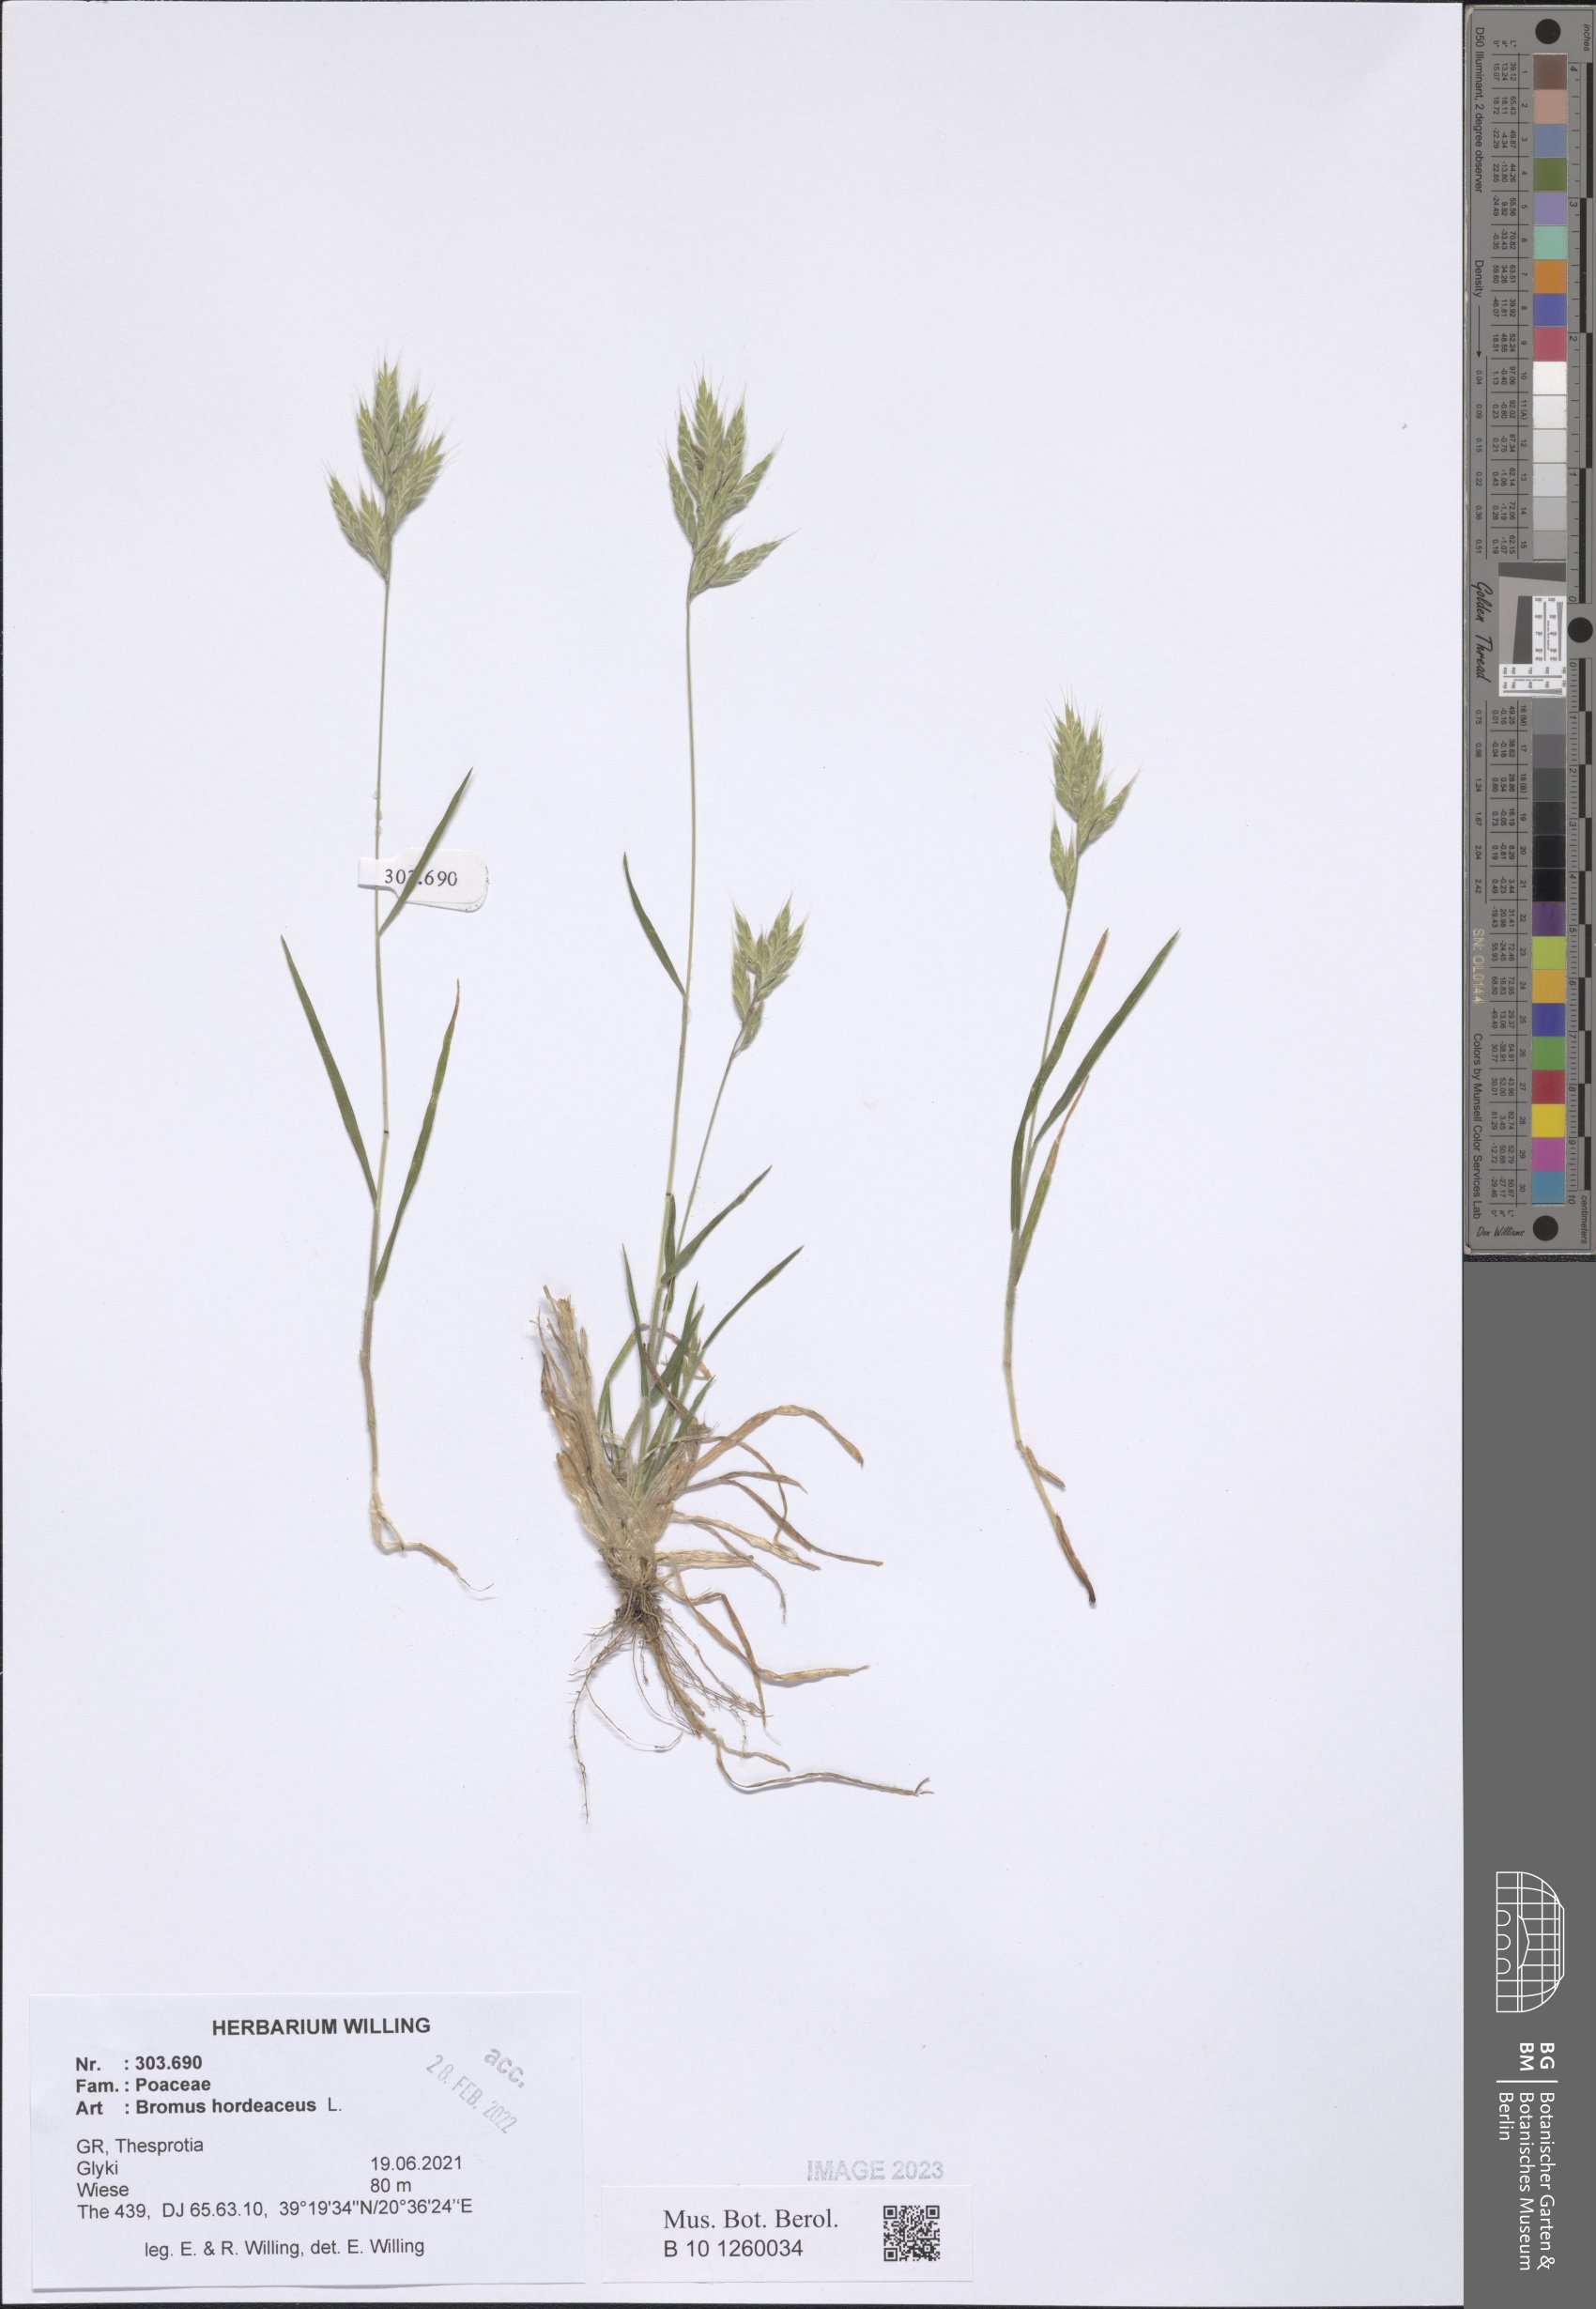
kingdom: Plantae
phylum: Tracheophyta
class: Liliopsida
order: Poales
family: Poaceae
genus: Bromus
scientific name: Bromus hordeaceus
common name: Soft brome
